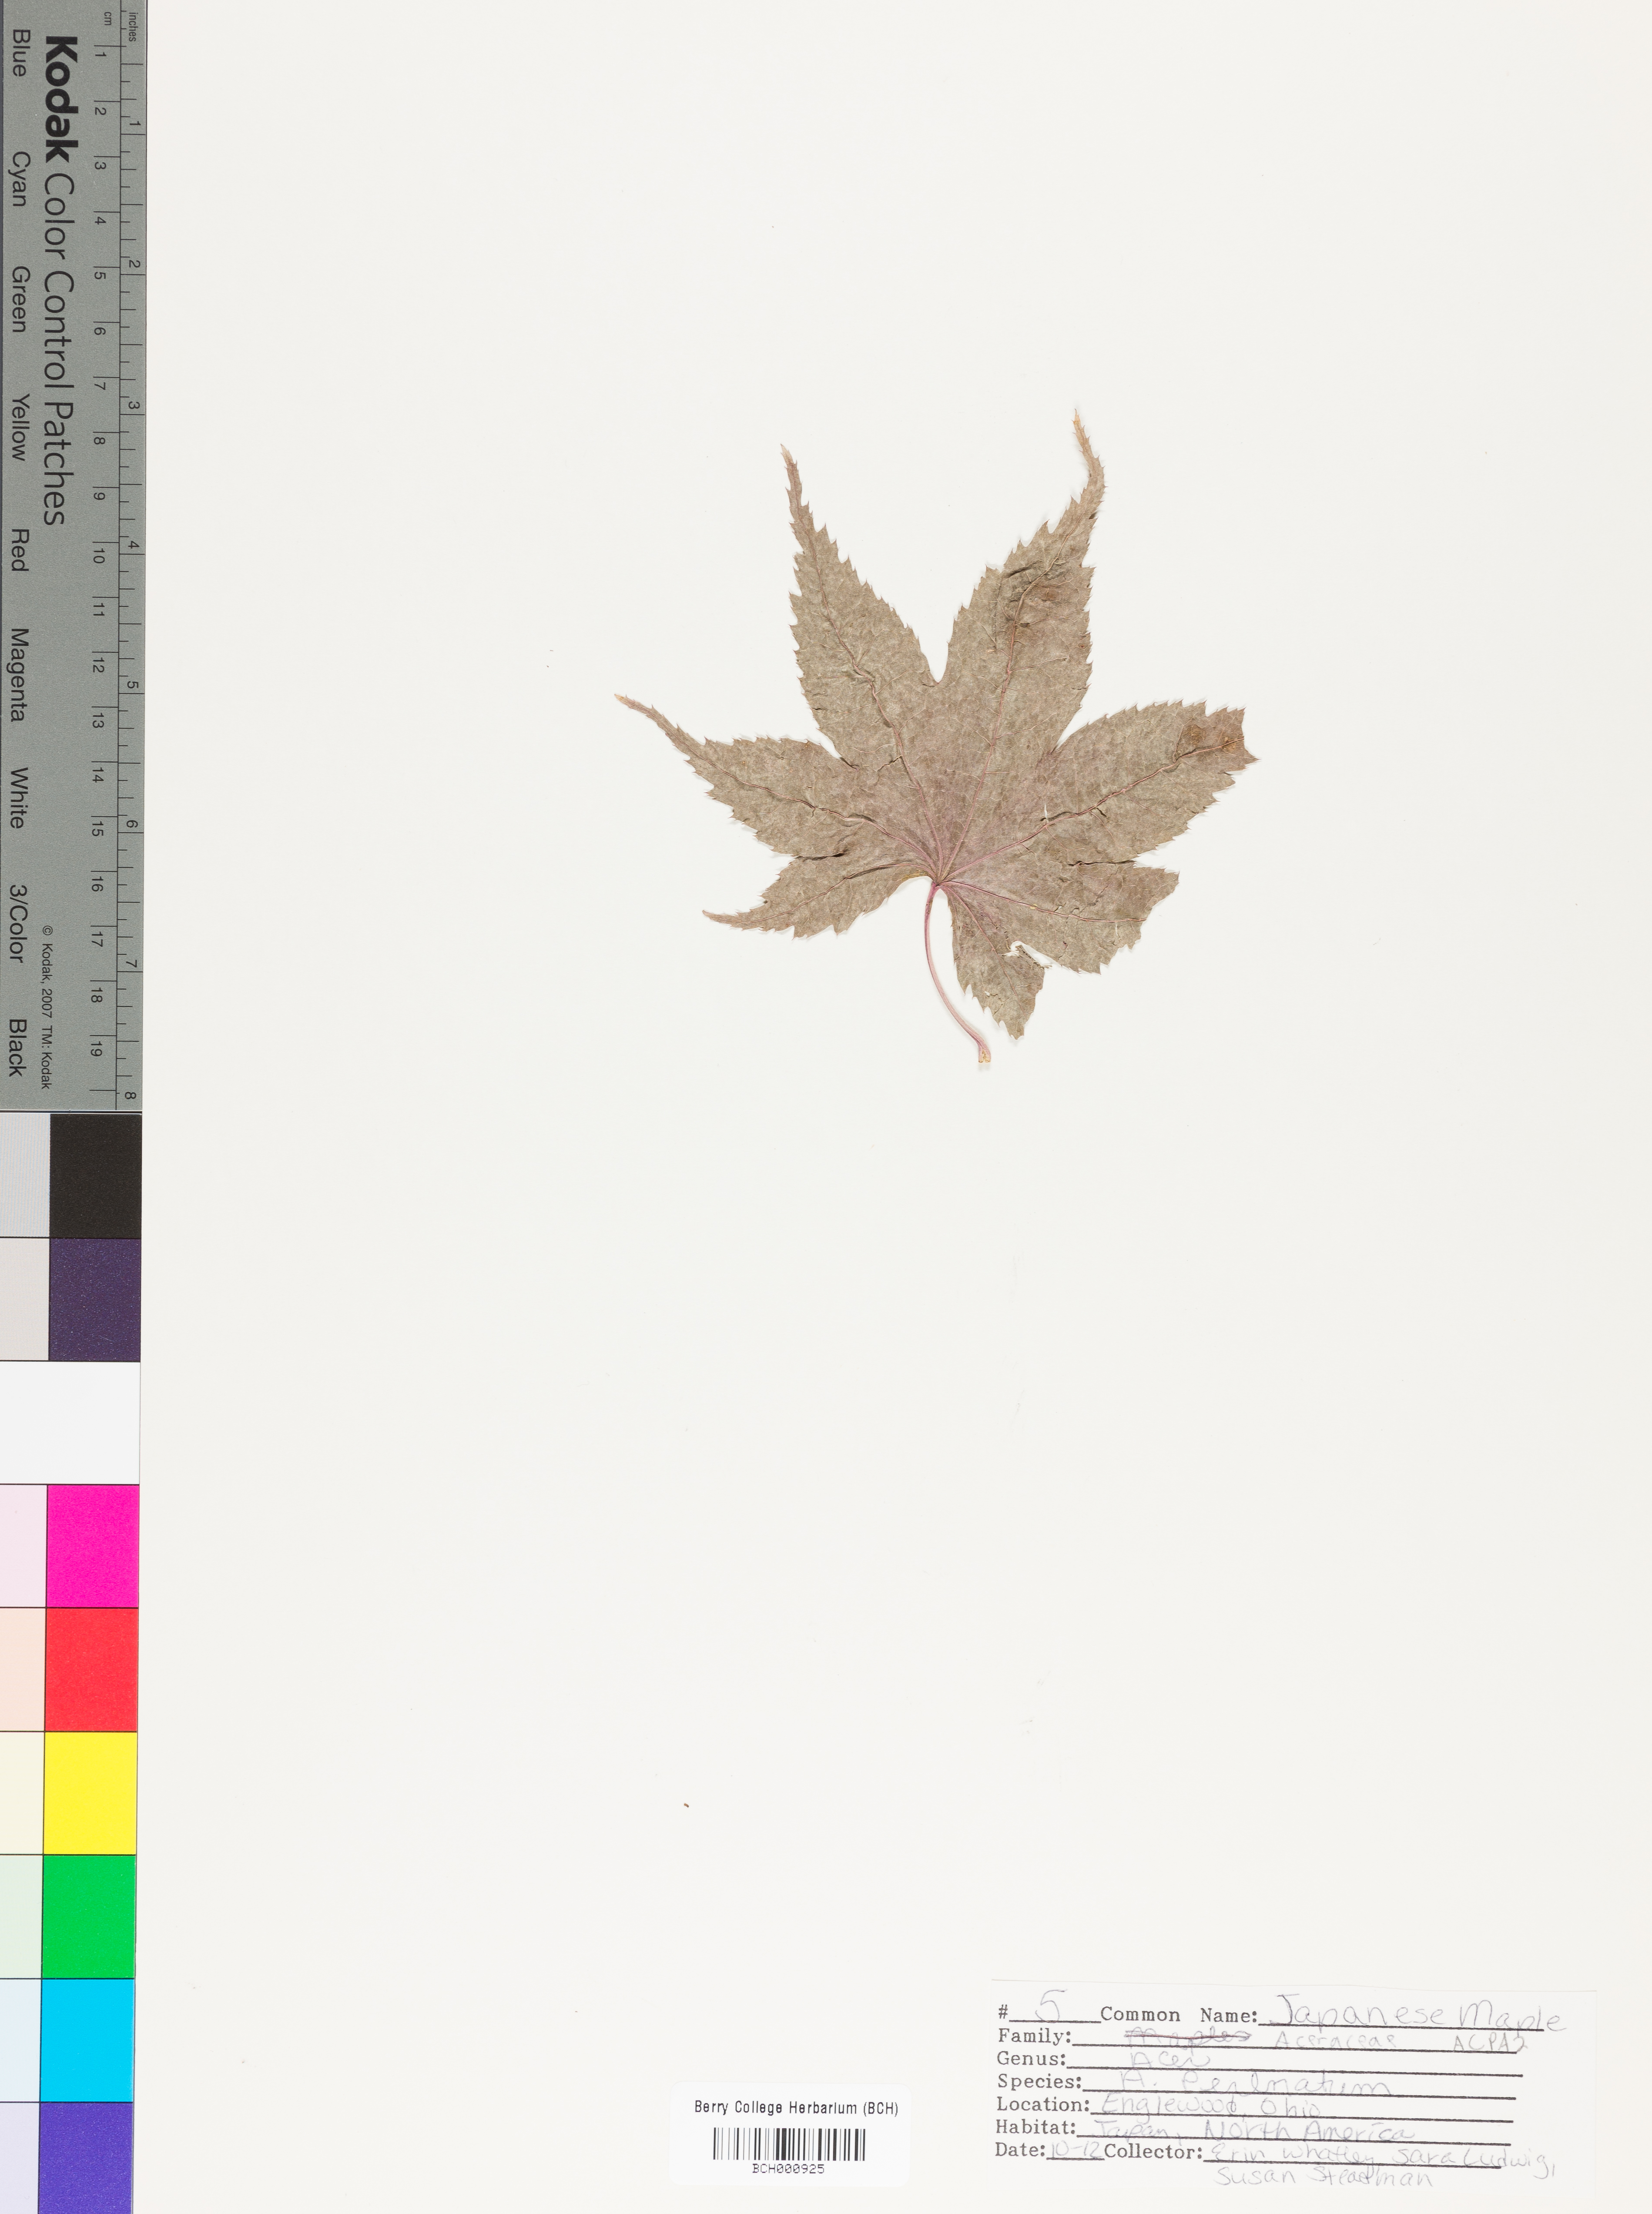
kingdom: Plantae
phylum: Tracheophyta
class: Magnoliopsida
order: Sapindales
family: Sapindaceae
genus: Acer
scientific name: Acer palmatum
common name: Japanese maple
